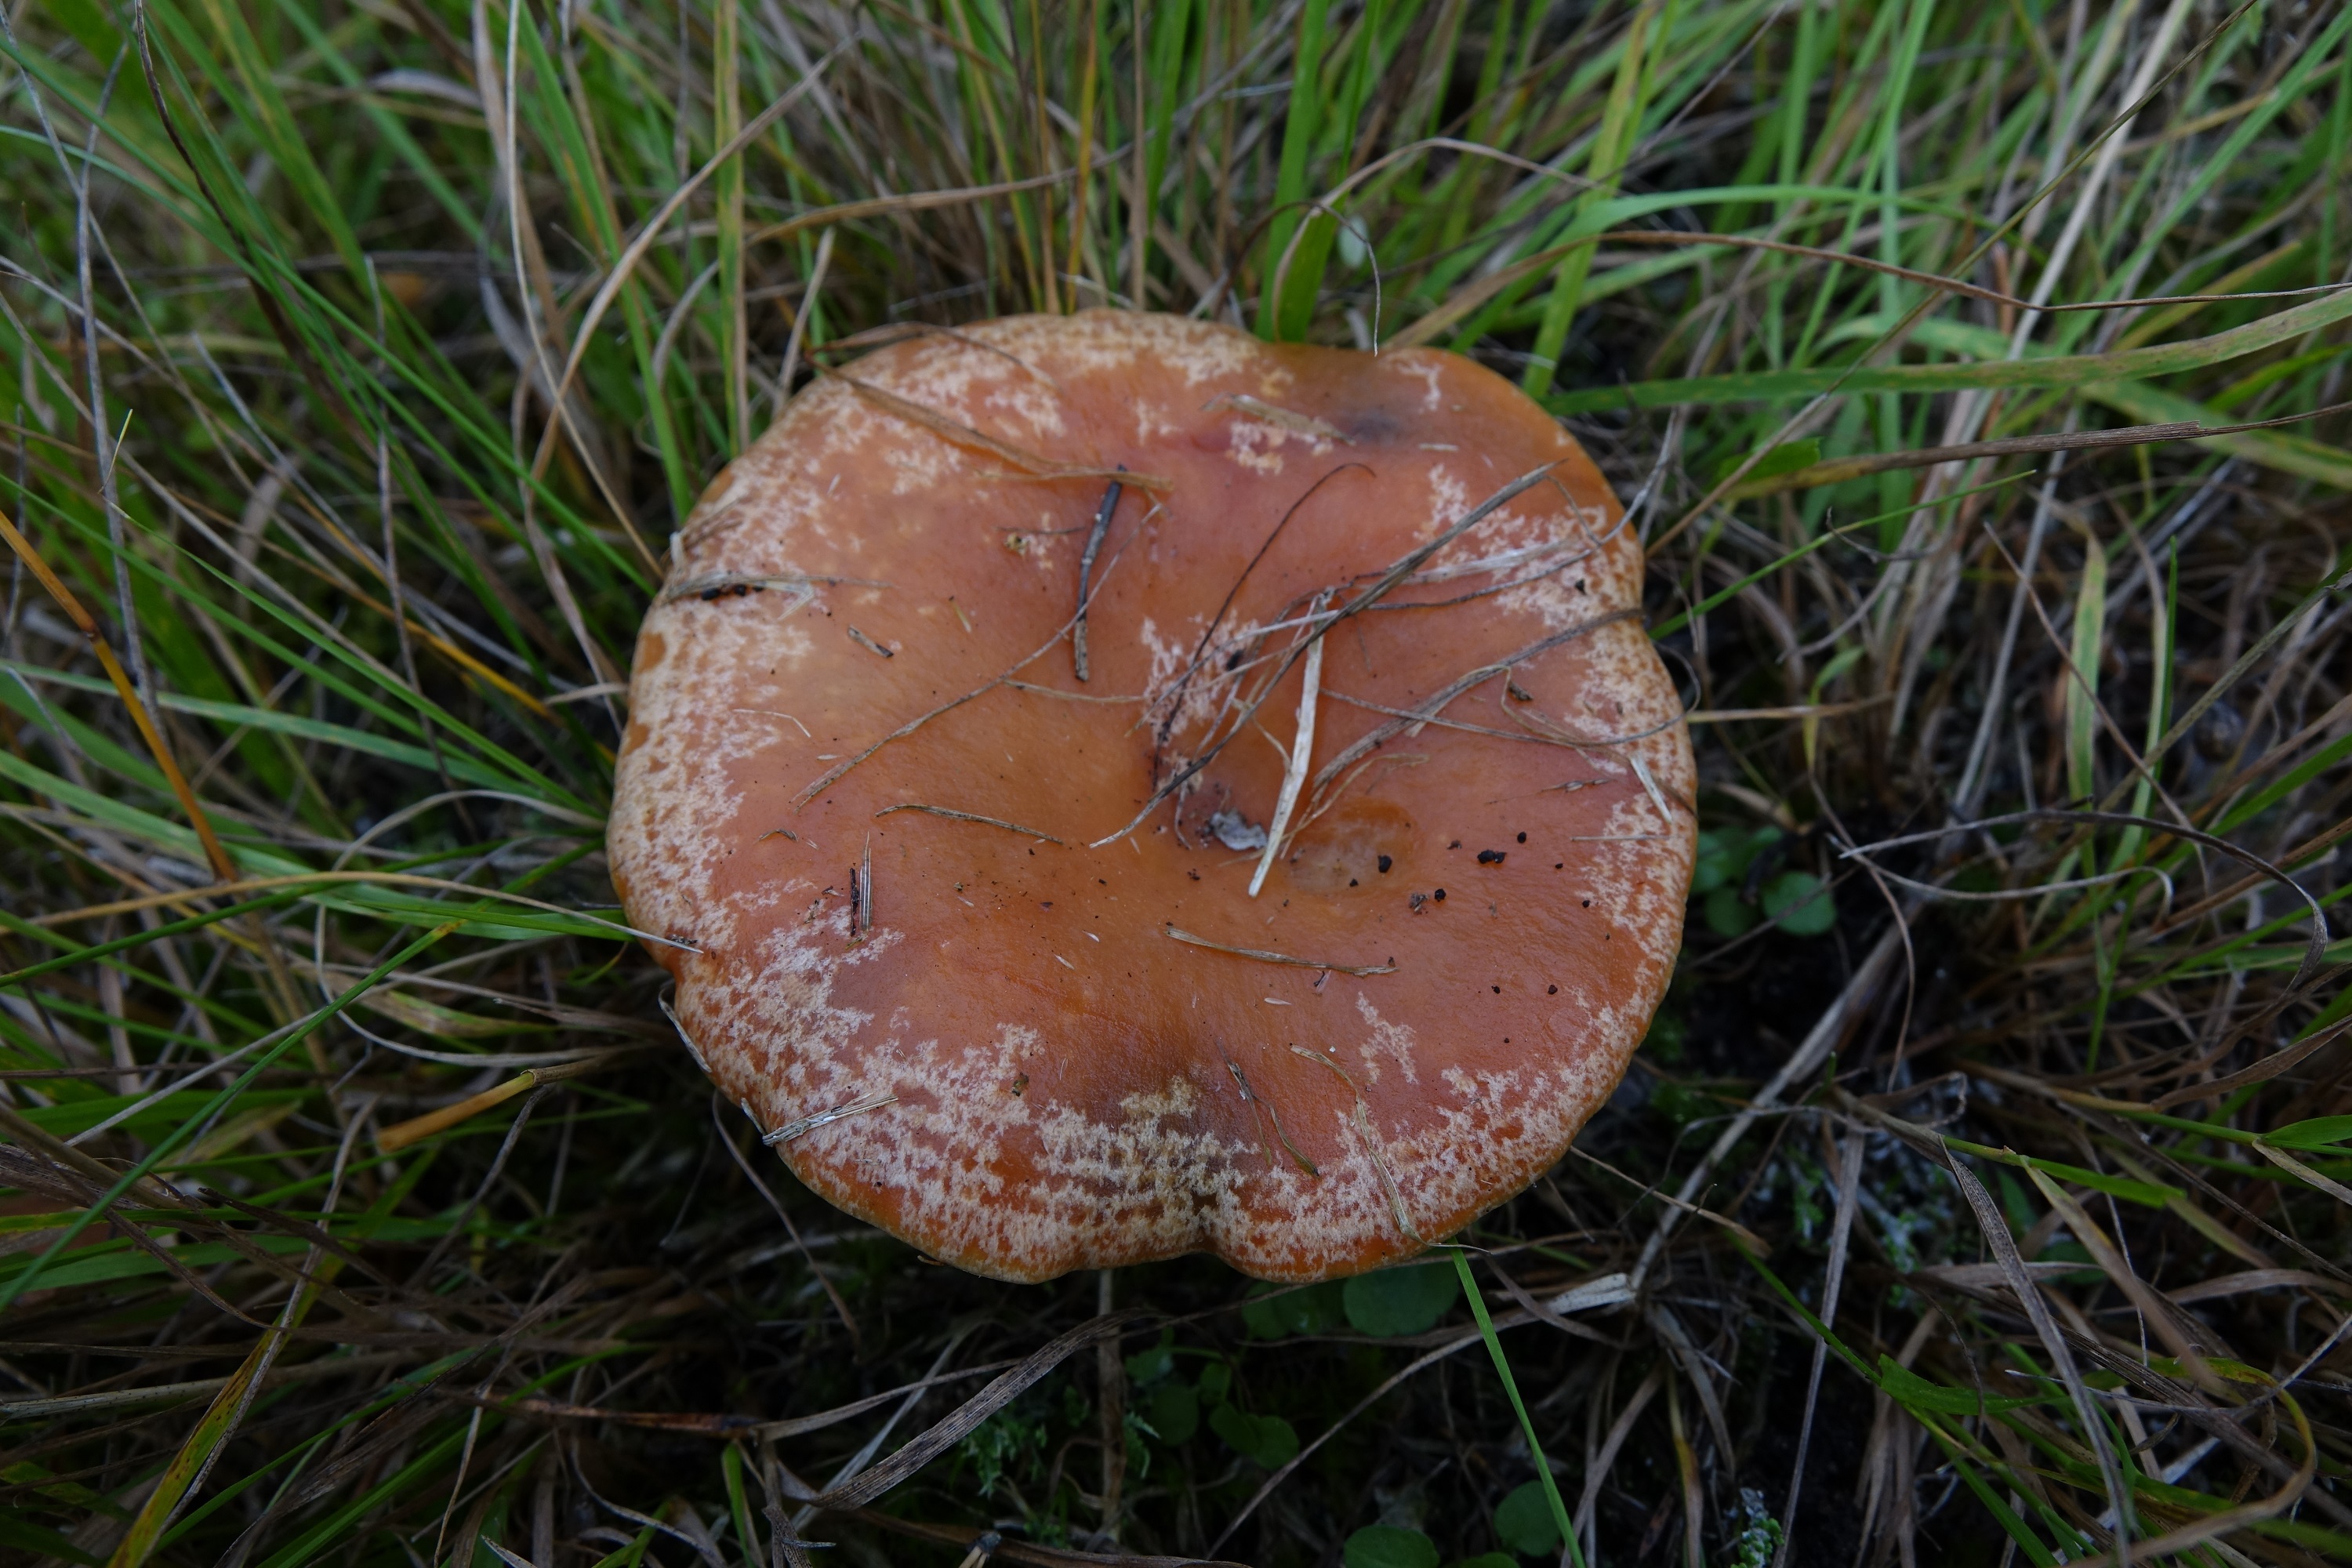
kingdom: Fungi
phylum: Basidiomycota
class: Agaricomycetes
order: Russulales
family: Russulaceae
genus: Lactarius
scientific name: Lactarius semisanguifluus
